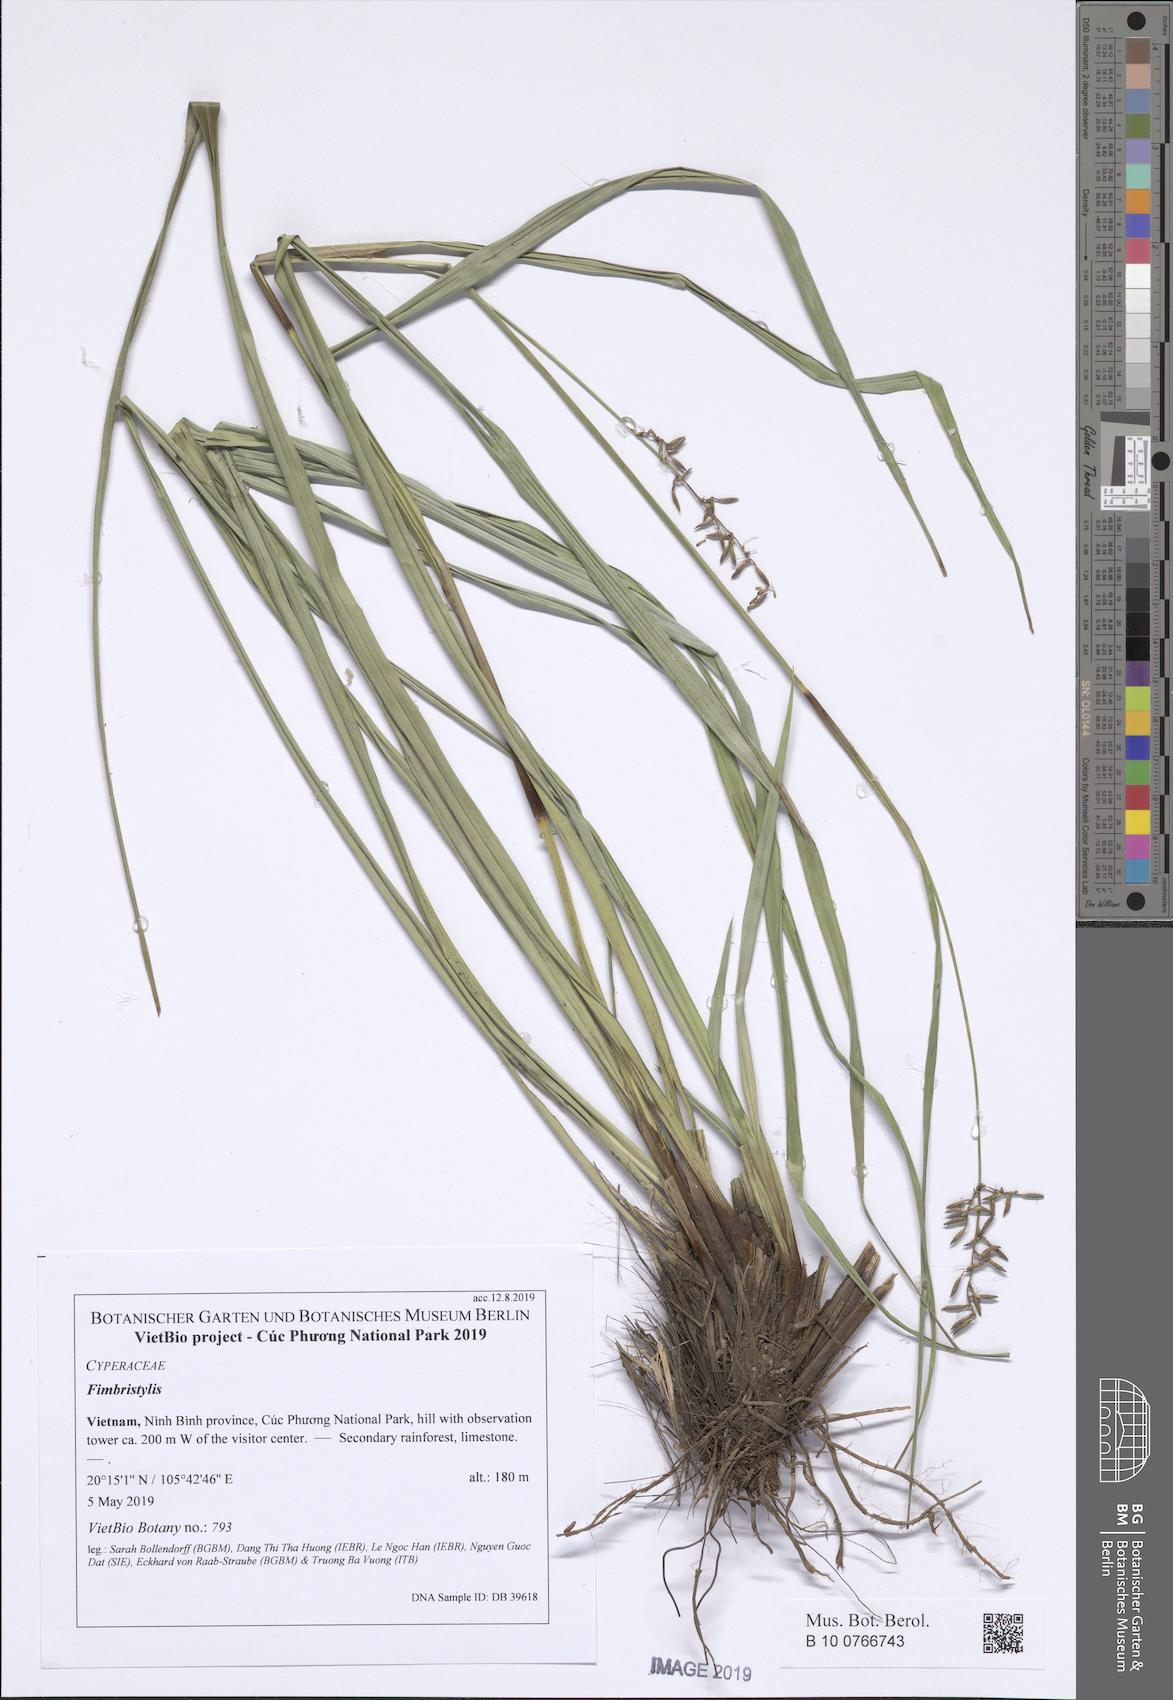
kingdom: Plantae
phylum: Tracheophyta
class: Liliopsida
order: Poales
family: Cyperaceae
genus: Scleria
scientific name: Scleria
